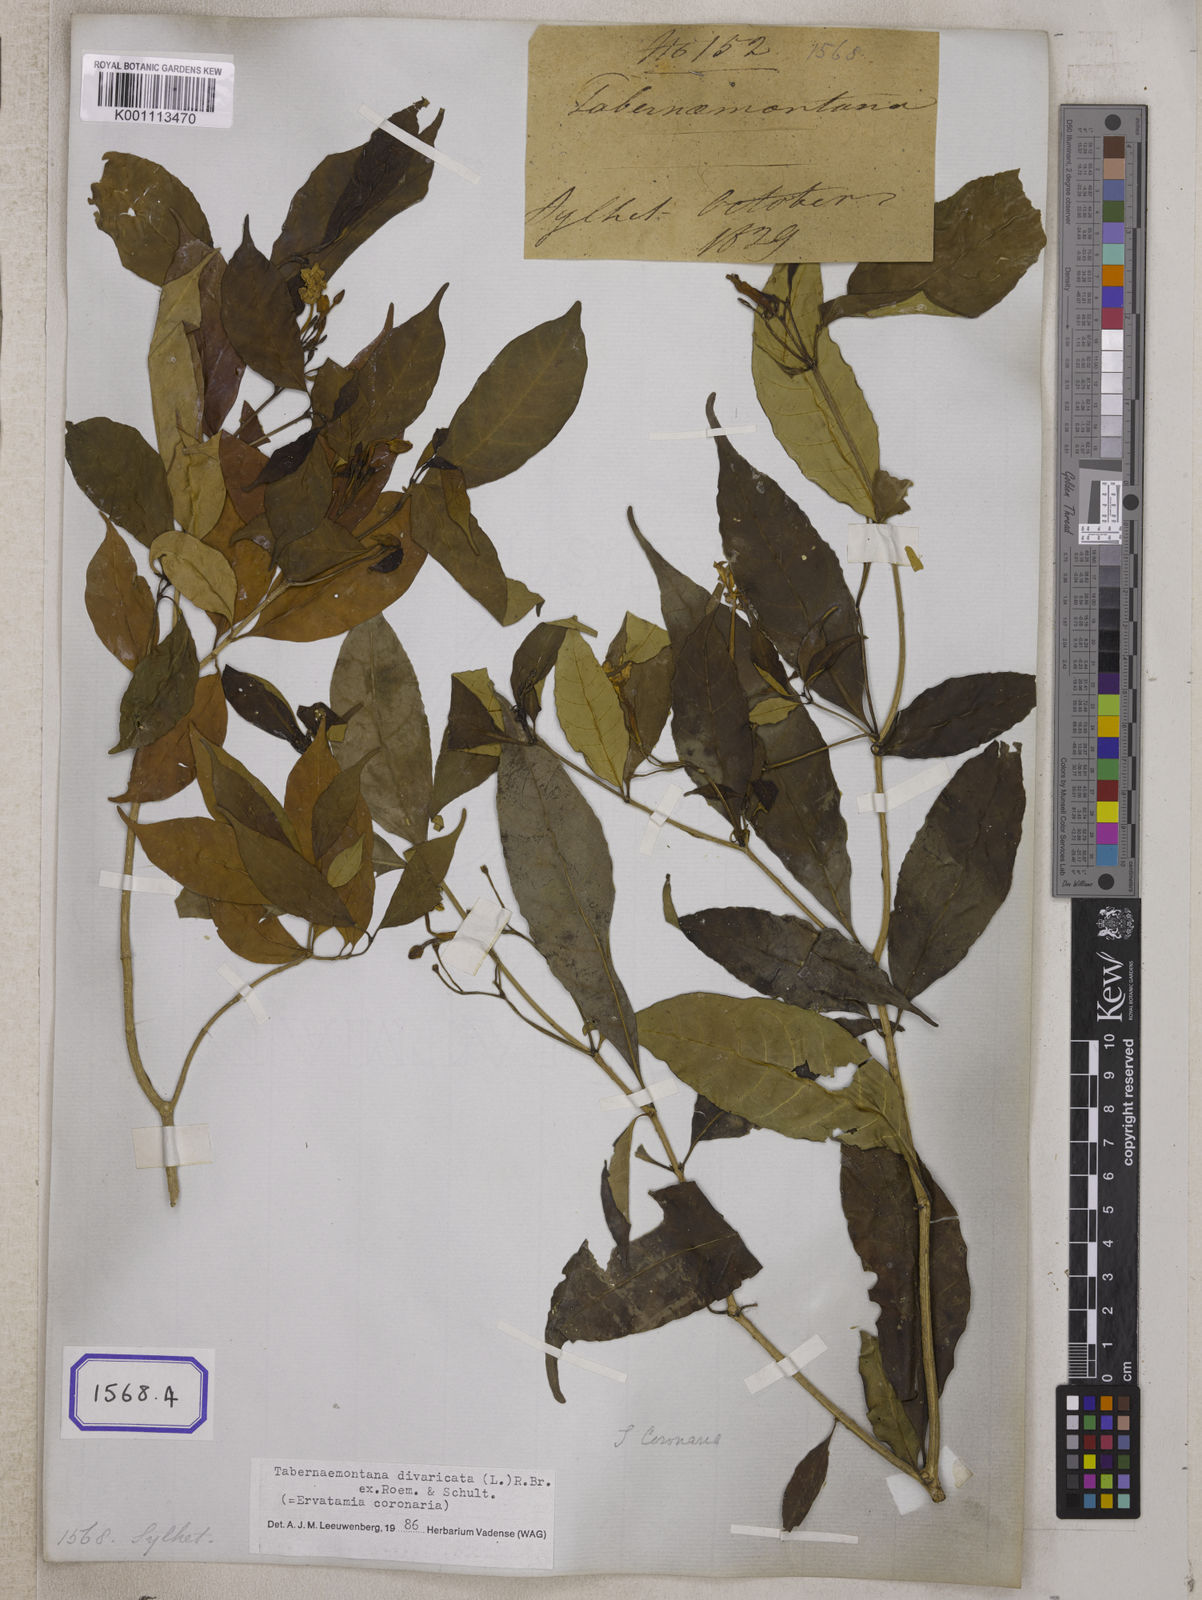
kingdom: Plantae
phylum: Tracheophyta
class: Magnoliopsida
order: Gentianales
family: Apocynaceae
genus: Tabernaemontana
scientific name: Tabernaemontana divaricata
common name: Pinwheelflower
